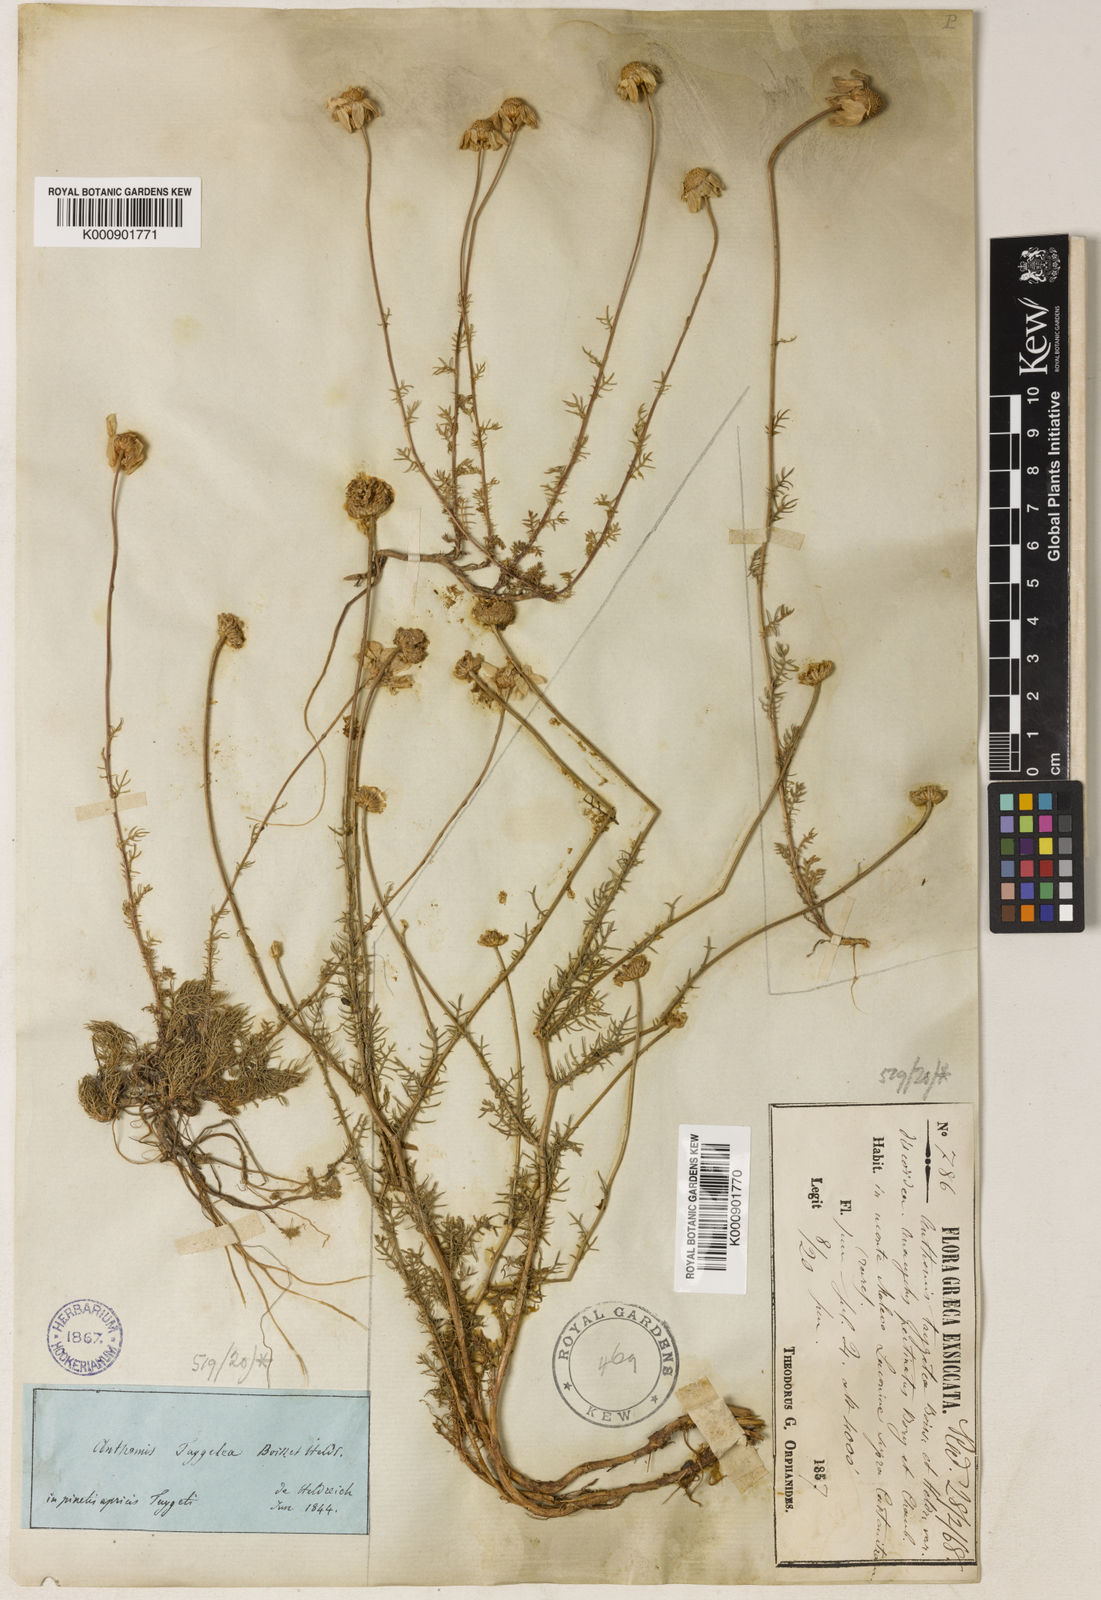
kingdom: Plantae
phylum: Tracheophyta
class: Magnoliopsida
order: Asterales
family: Asteraceae
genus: Anthemis
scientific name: Anthemis orientalis
